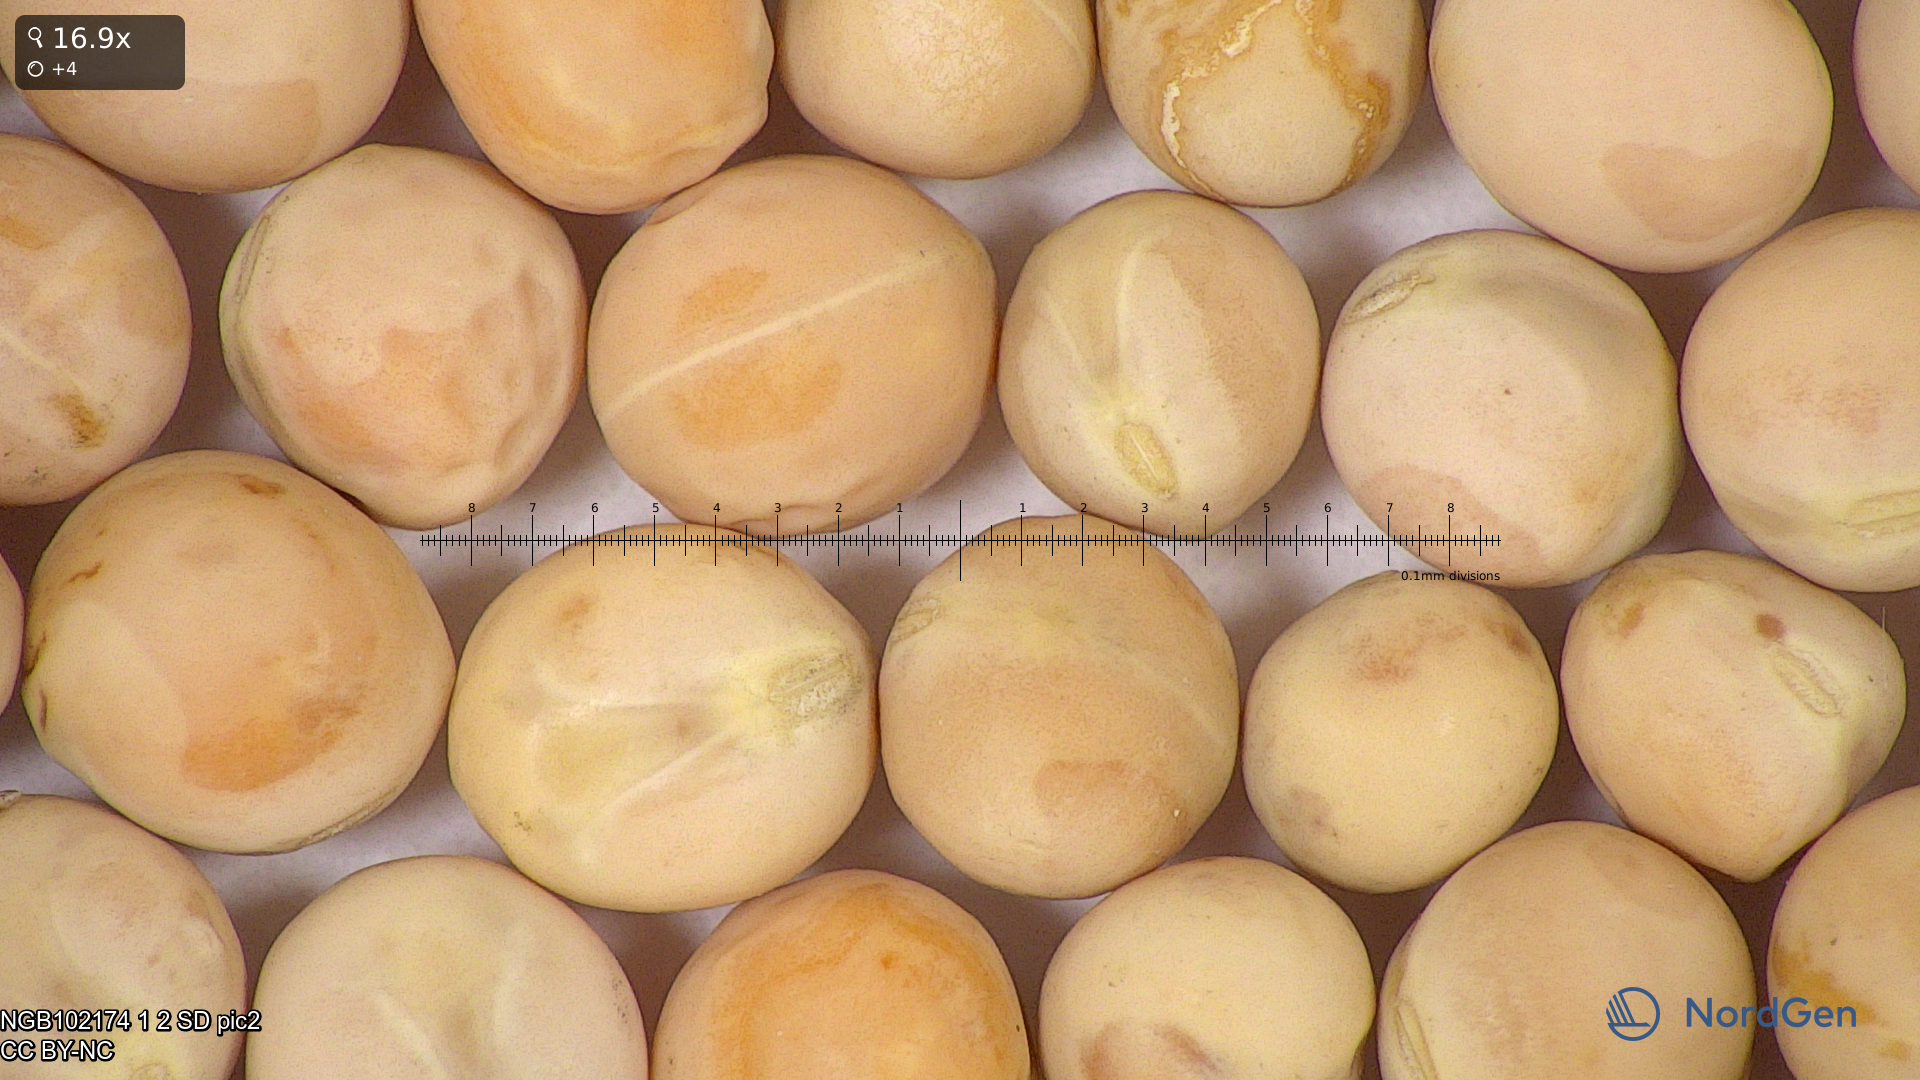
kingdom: Plantae
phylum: Tracheophyta
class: Magnoliopsida
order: Fabales
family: Fabaceae
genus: Lathyrus
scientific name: Lathyrus oleraceus
